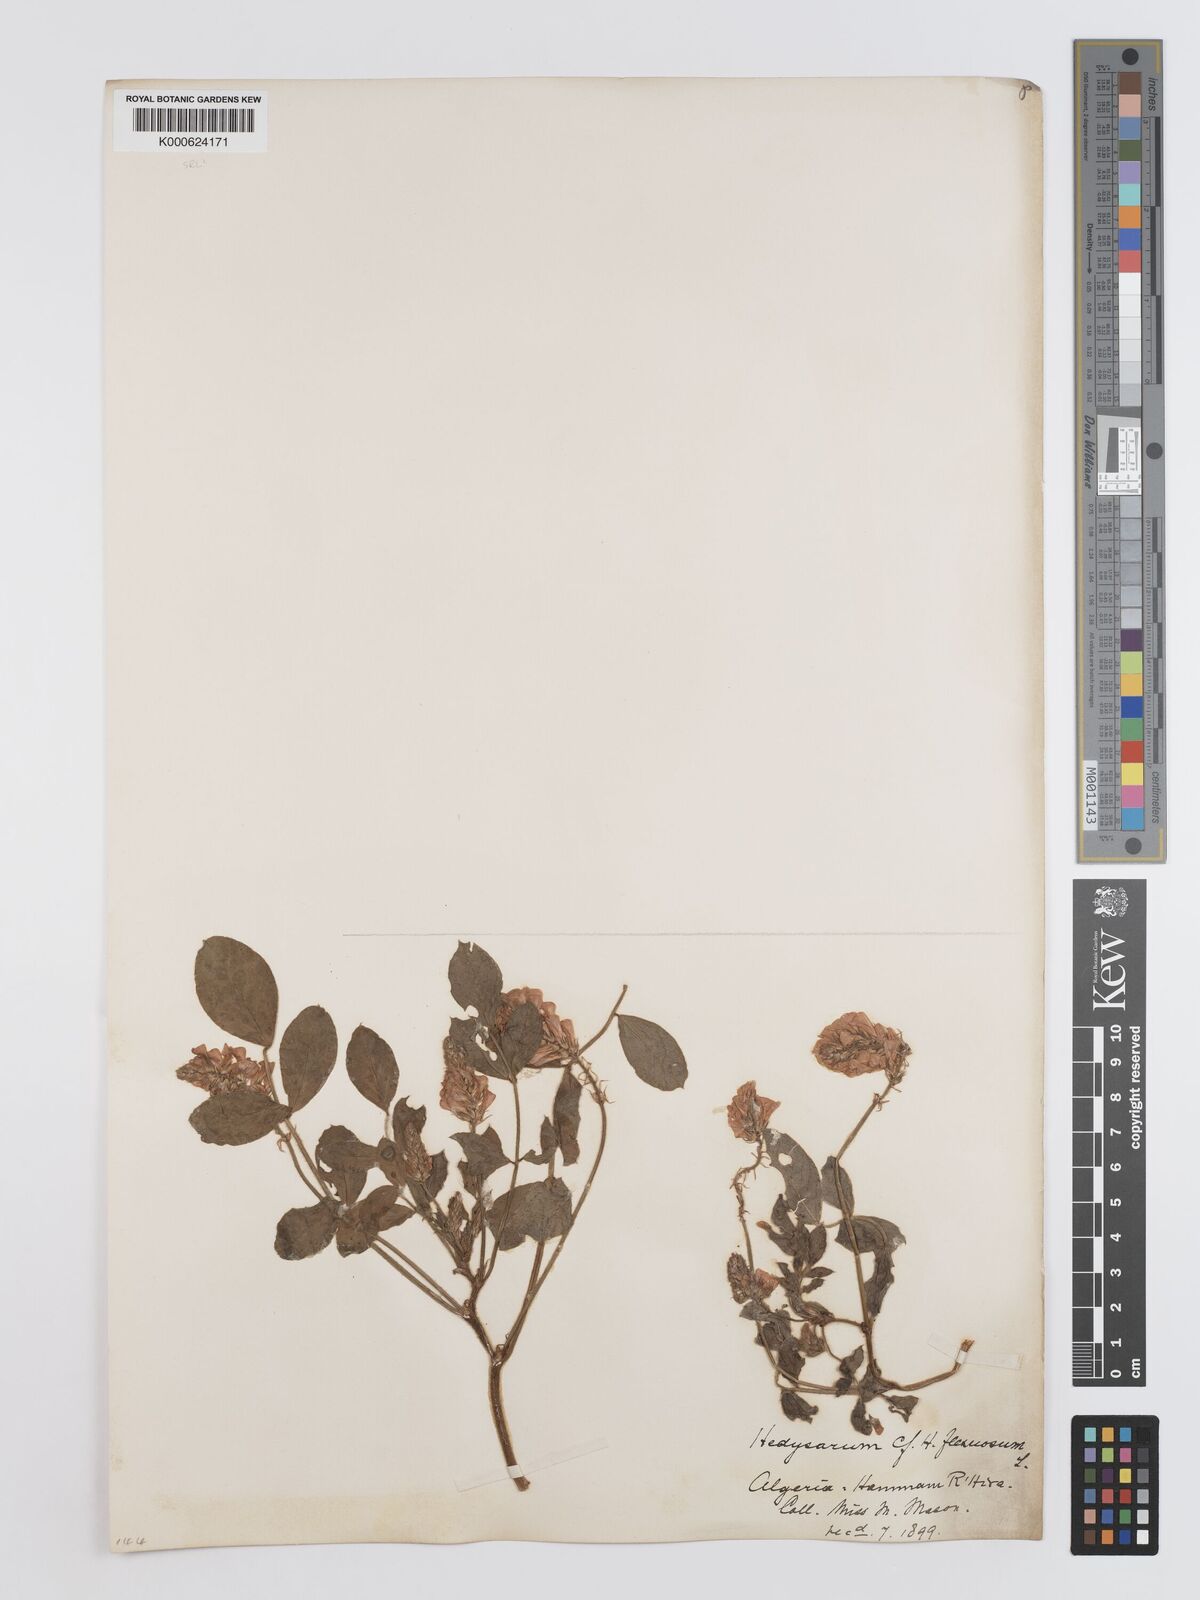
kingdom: Plantae
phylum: Tracheophyta
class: Magnoliopsida
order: Fabales
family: Fabaceae
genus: Sulla
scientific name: Sulla flexuosa
